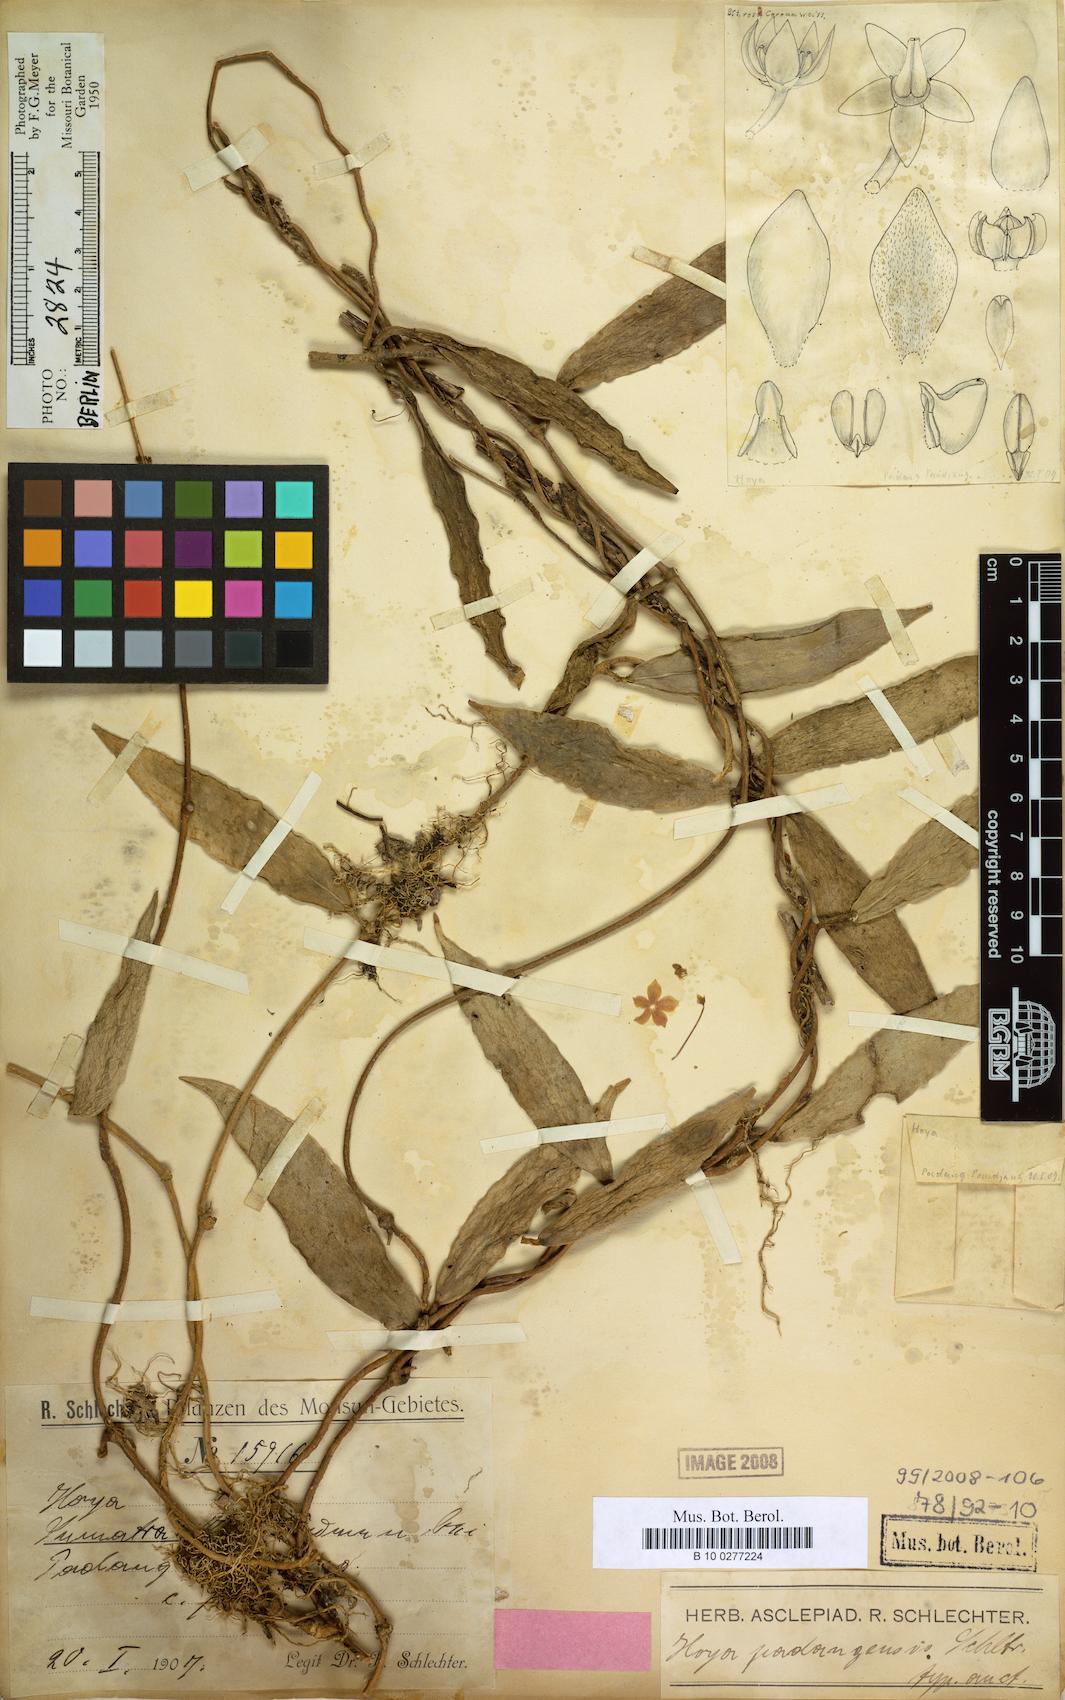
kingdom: Plantae
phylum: Tracheophyta
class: Magnoliopsida
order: Gentianales
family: Apocynaceae
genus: Hoya
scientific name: Hoya uncinata
